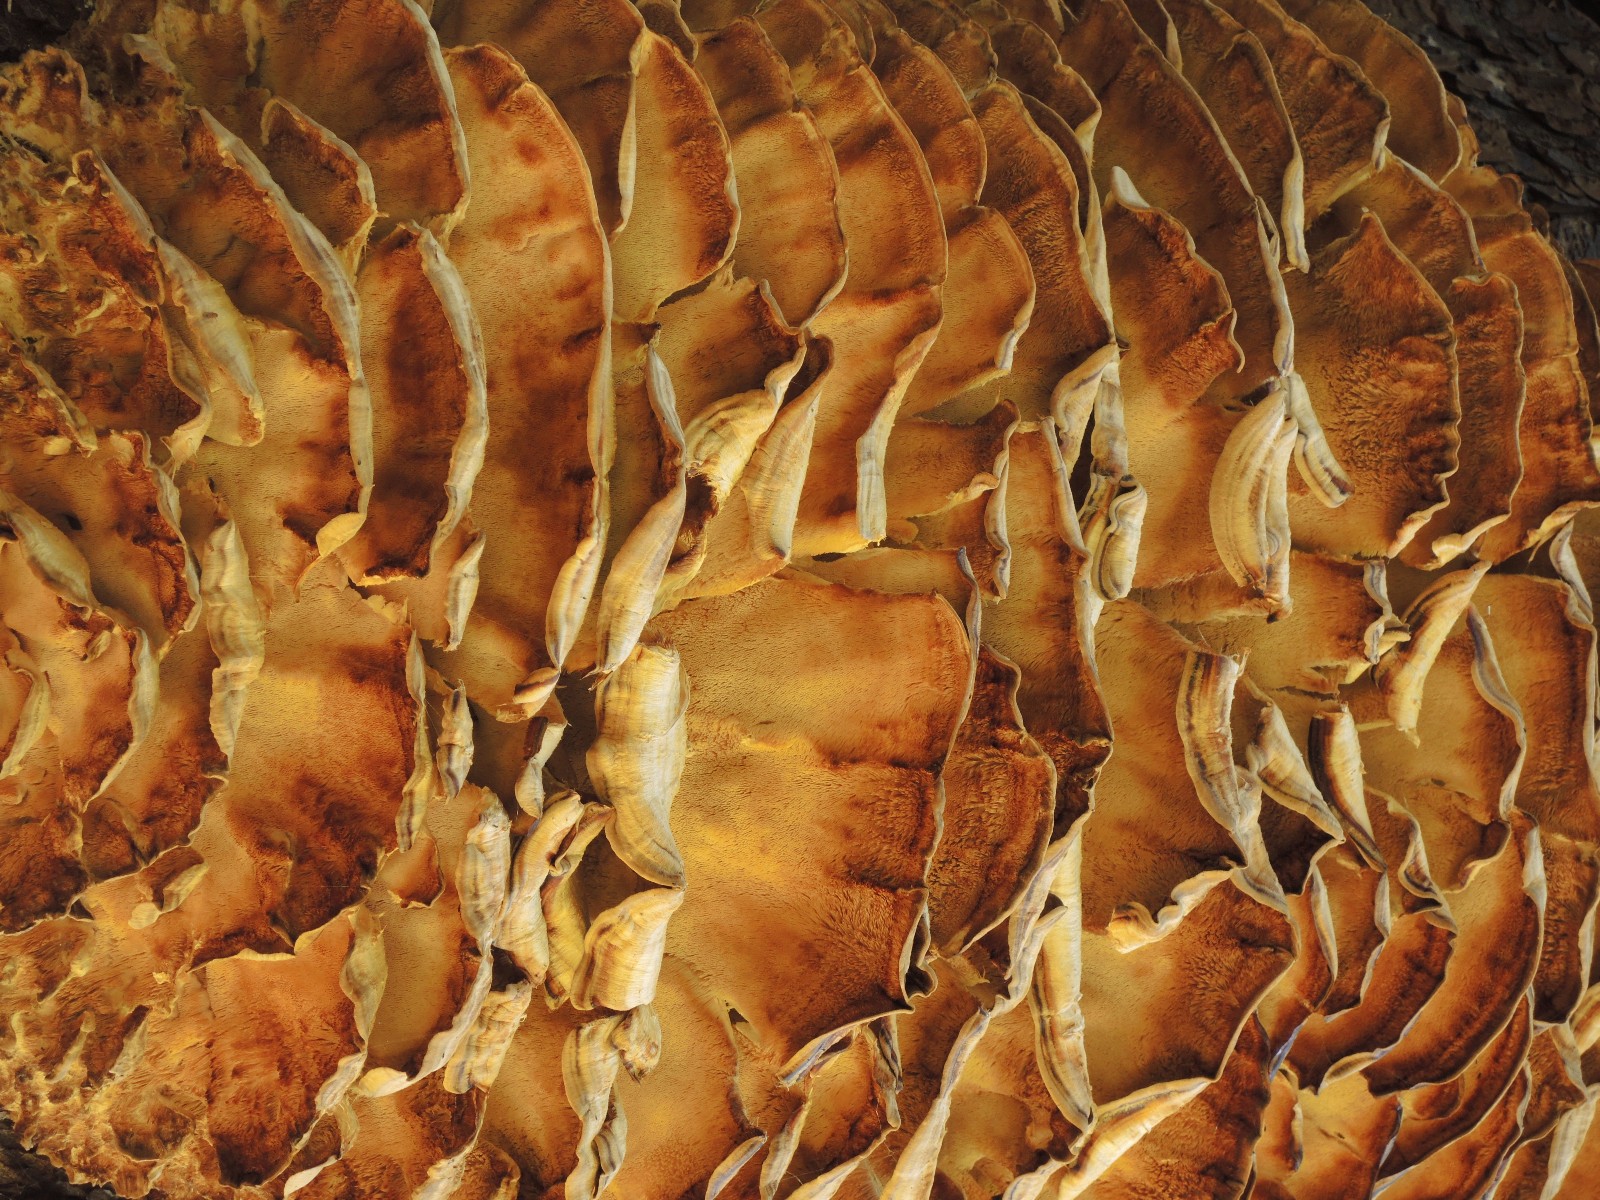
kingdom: Fungi
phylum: Basidiomycota
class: Agaricomycetes
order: Polyporales
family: Meruliaceae
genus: Climacodon
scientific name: Climacodon septentrionalis
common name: kæmpepigsvamp
